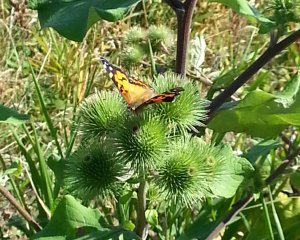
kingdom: Animalia
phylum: Arthropoda
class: Insecta
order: Lepidoptera
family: Nymphalidae
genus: Vanessa
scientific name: Vanessa virginiensis
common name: American Lady
